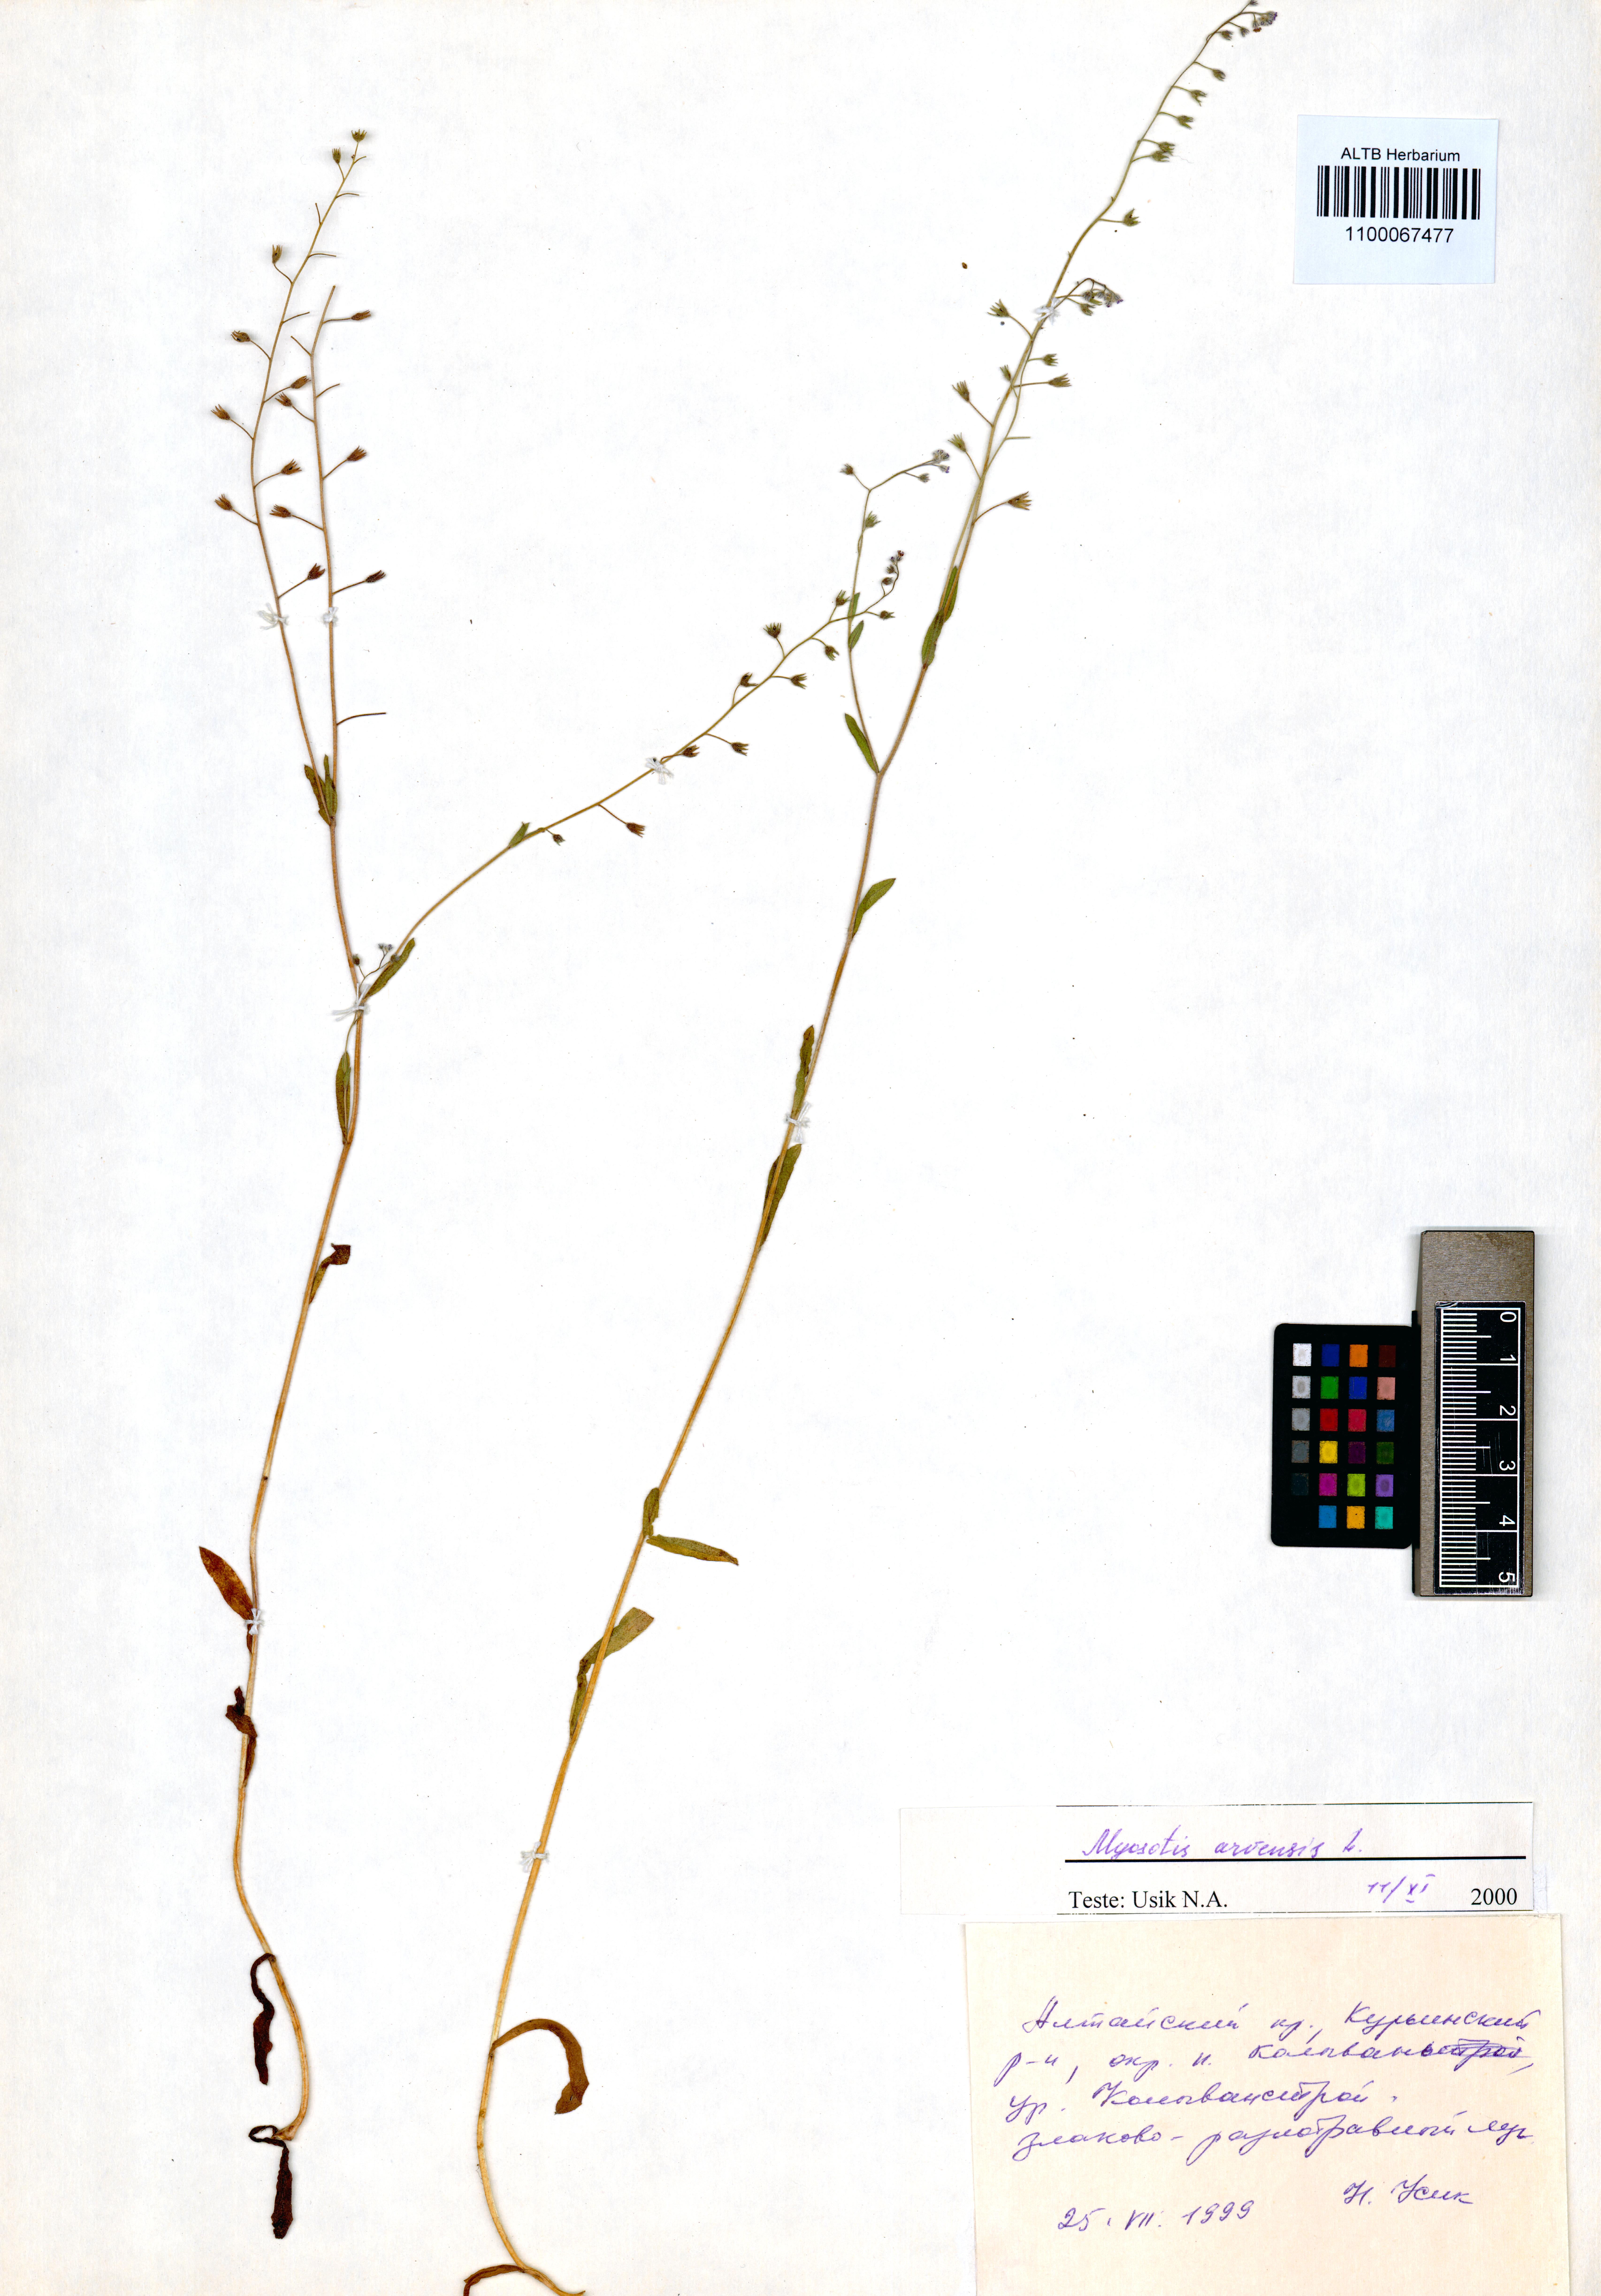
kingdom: Plantae
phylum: Tracheophyta
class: Magnoliopsida
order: Boraginales
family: Boraginaceae
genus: Myosotis
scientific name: Myosotis arvensis
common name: Field forget-me-not
